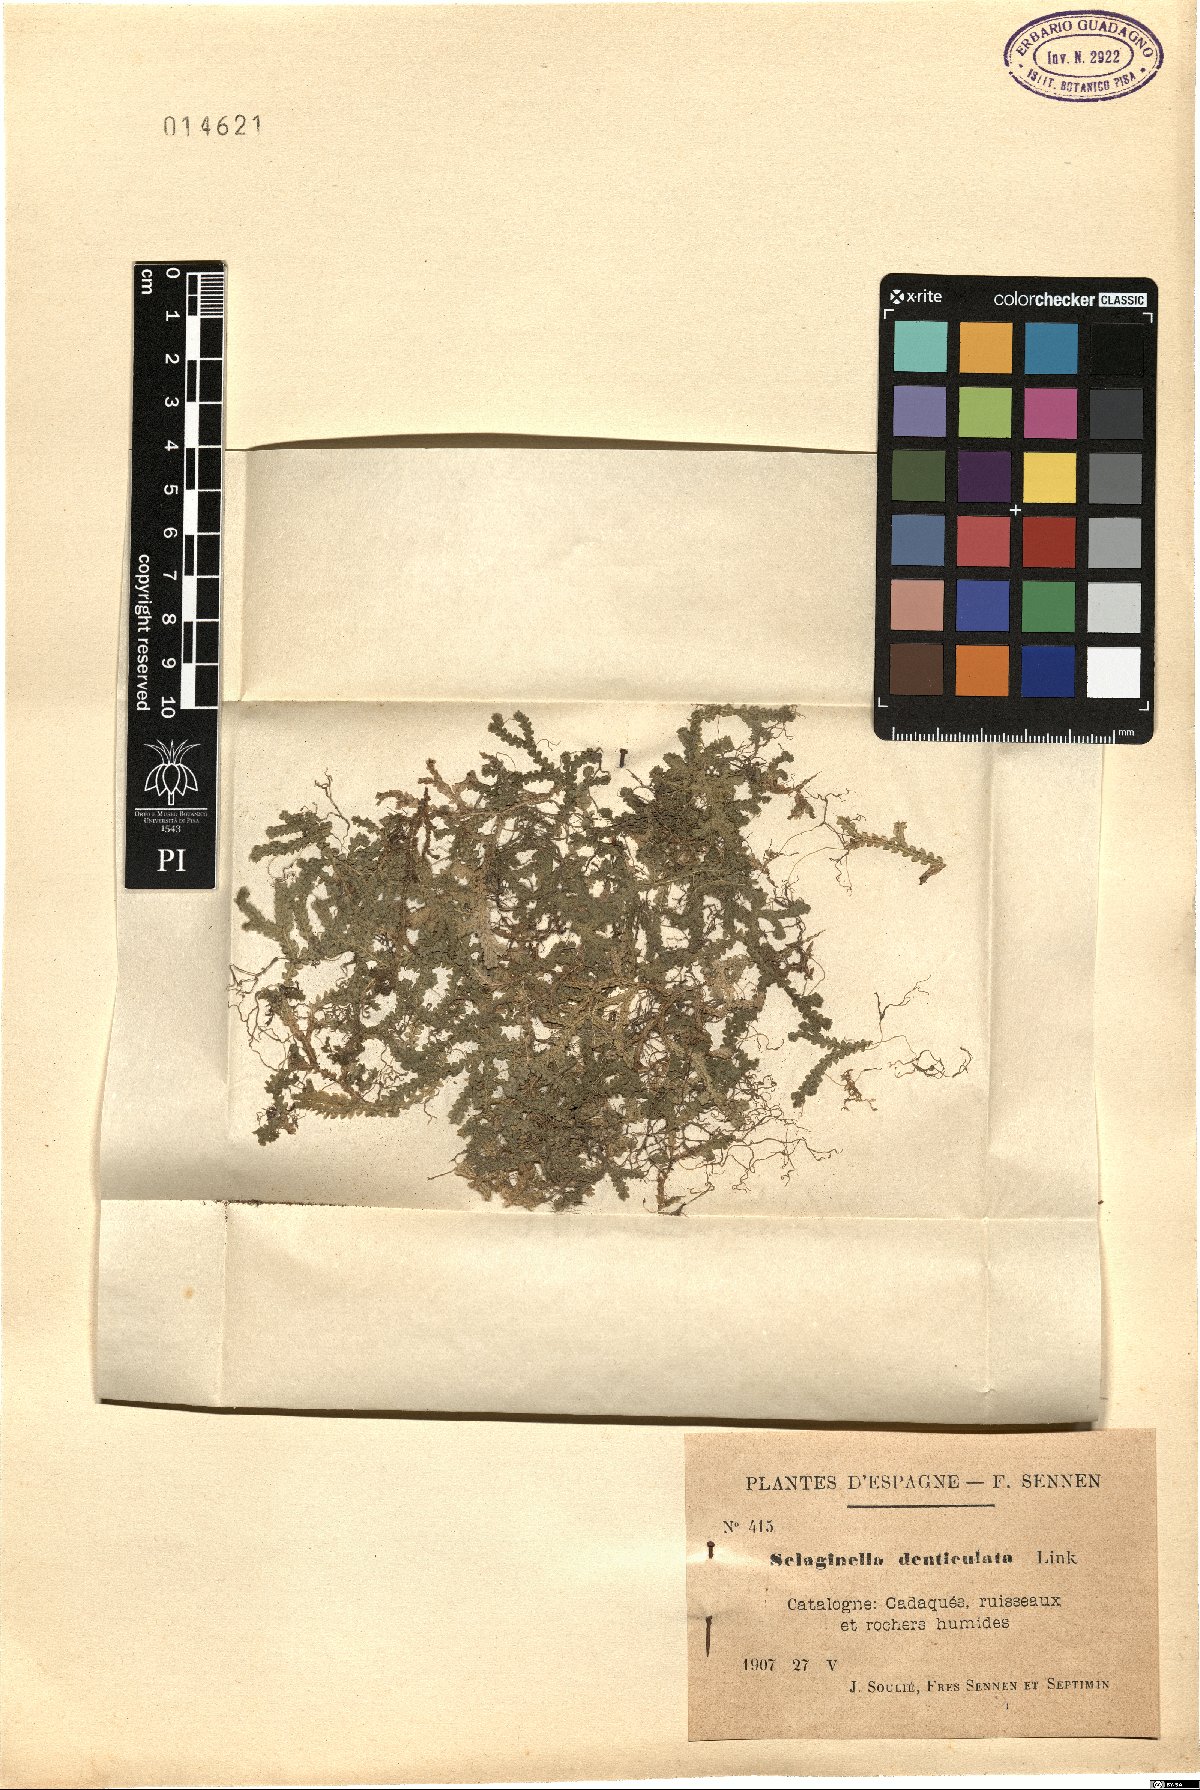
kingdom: Plantae
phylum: Tracheophyta
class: Lycopodiopsida
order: Selaginellales
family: Selaginellaceae
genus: Selaginella
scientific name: Selaginella denticulata
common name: Toothed-leaved clubmoss
